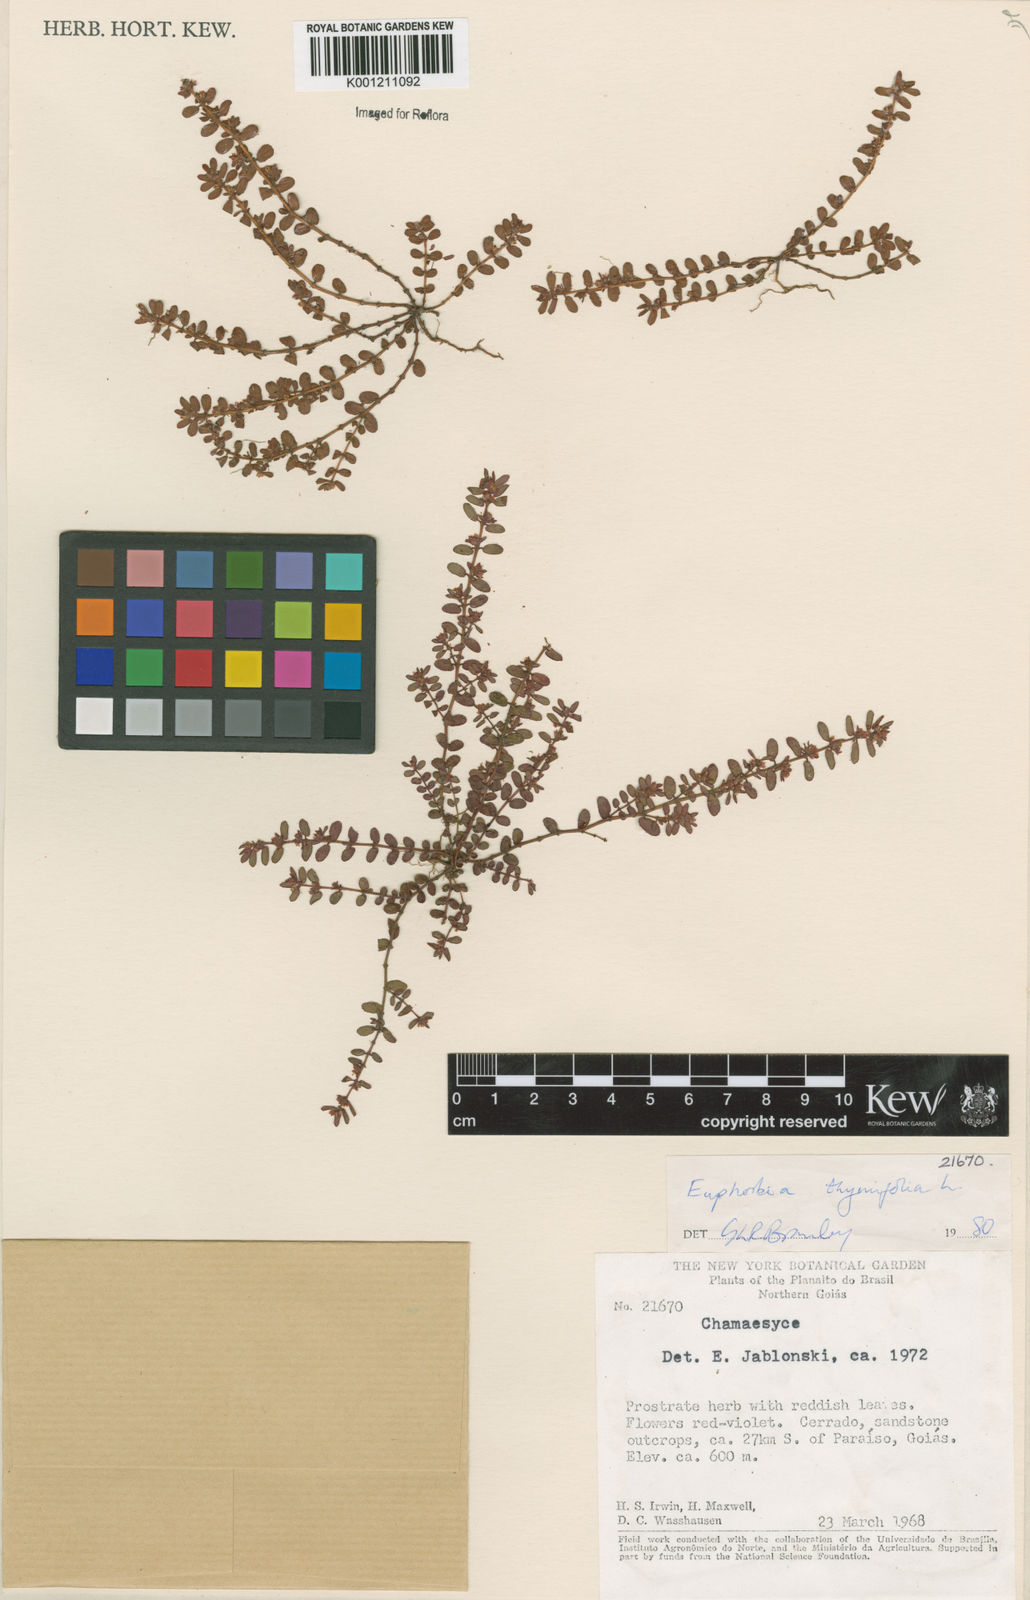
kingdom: Plantae
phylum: Tracheophyta
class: Magnoliopsida
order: Malpighiales
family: Euphorbiaceae
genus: Euphorbia
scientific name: Euphorbia thymifolia
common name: Gulf sandmat
